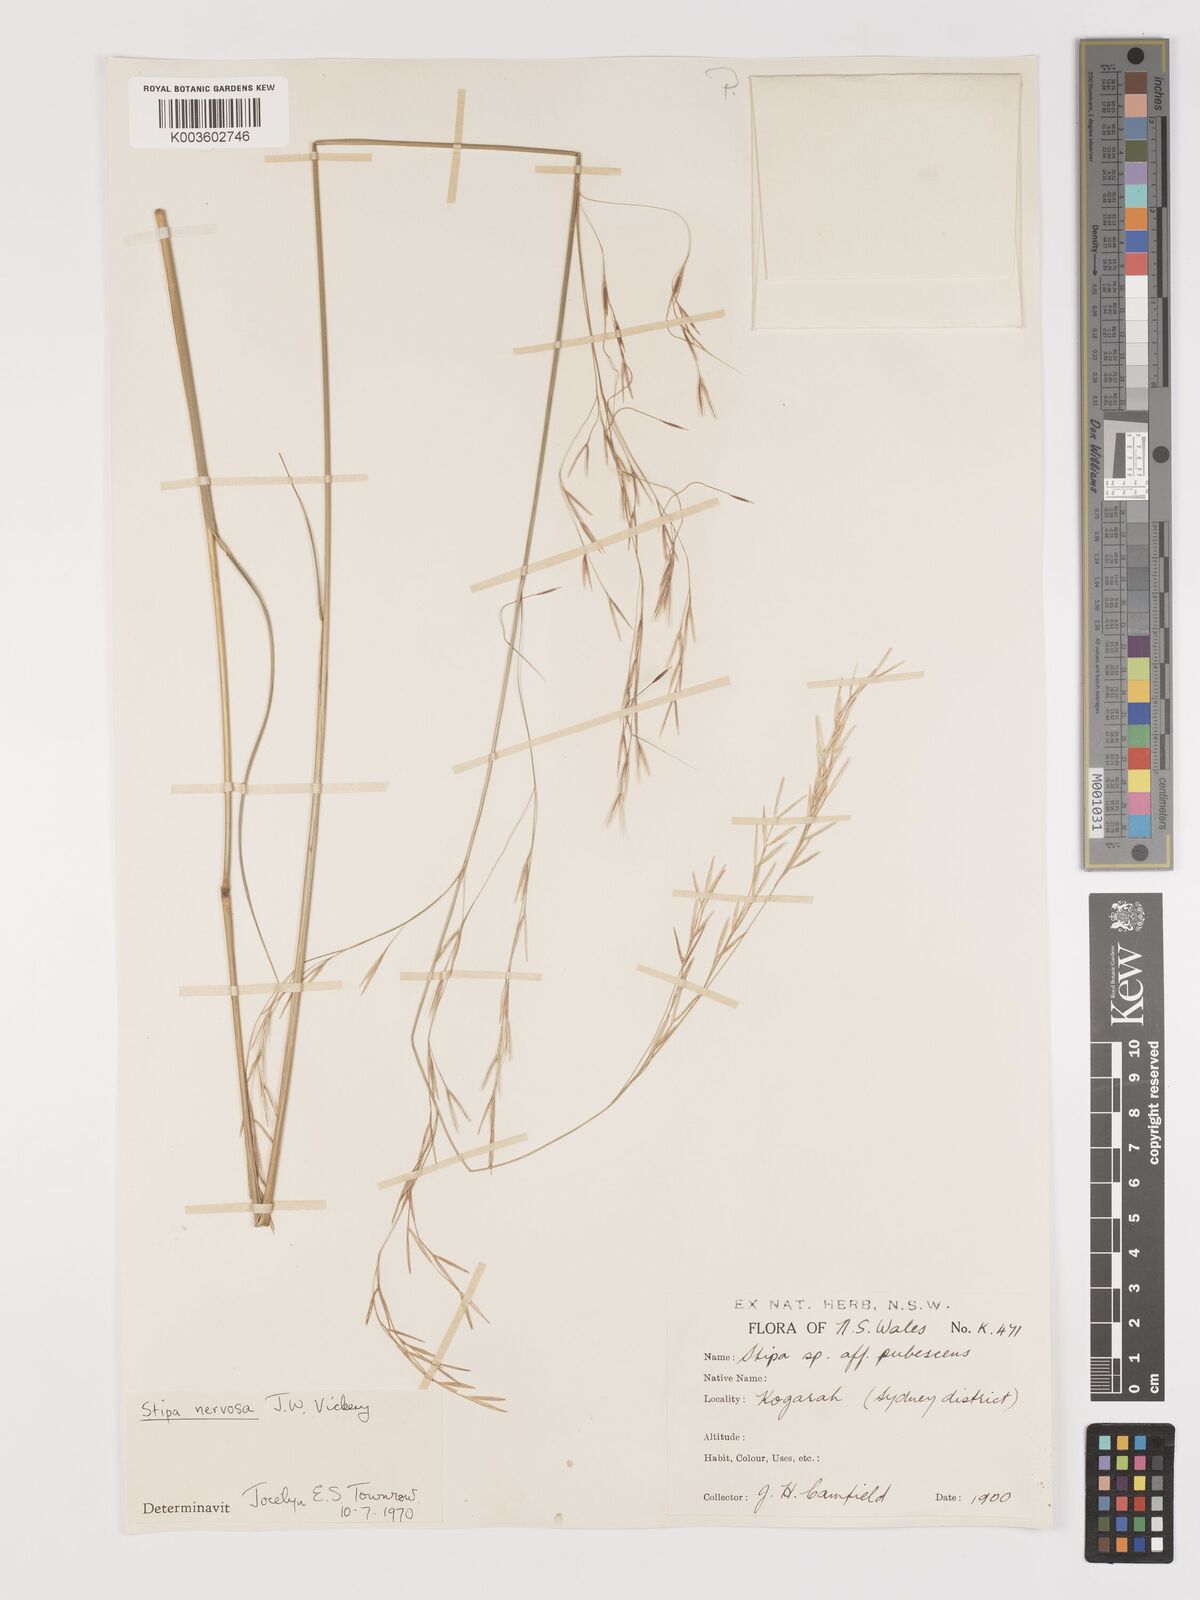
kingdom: Plantae
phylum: Tracheophyta
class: Liliopsida
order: Poales
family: Poaceae
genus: Austrostipa
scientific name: Austrostipa rudis
